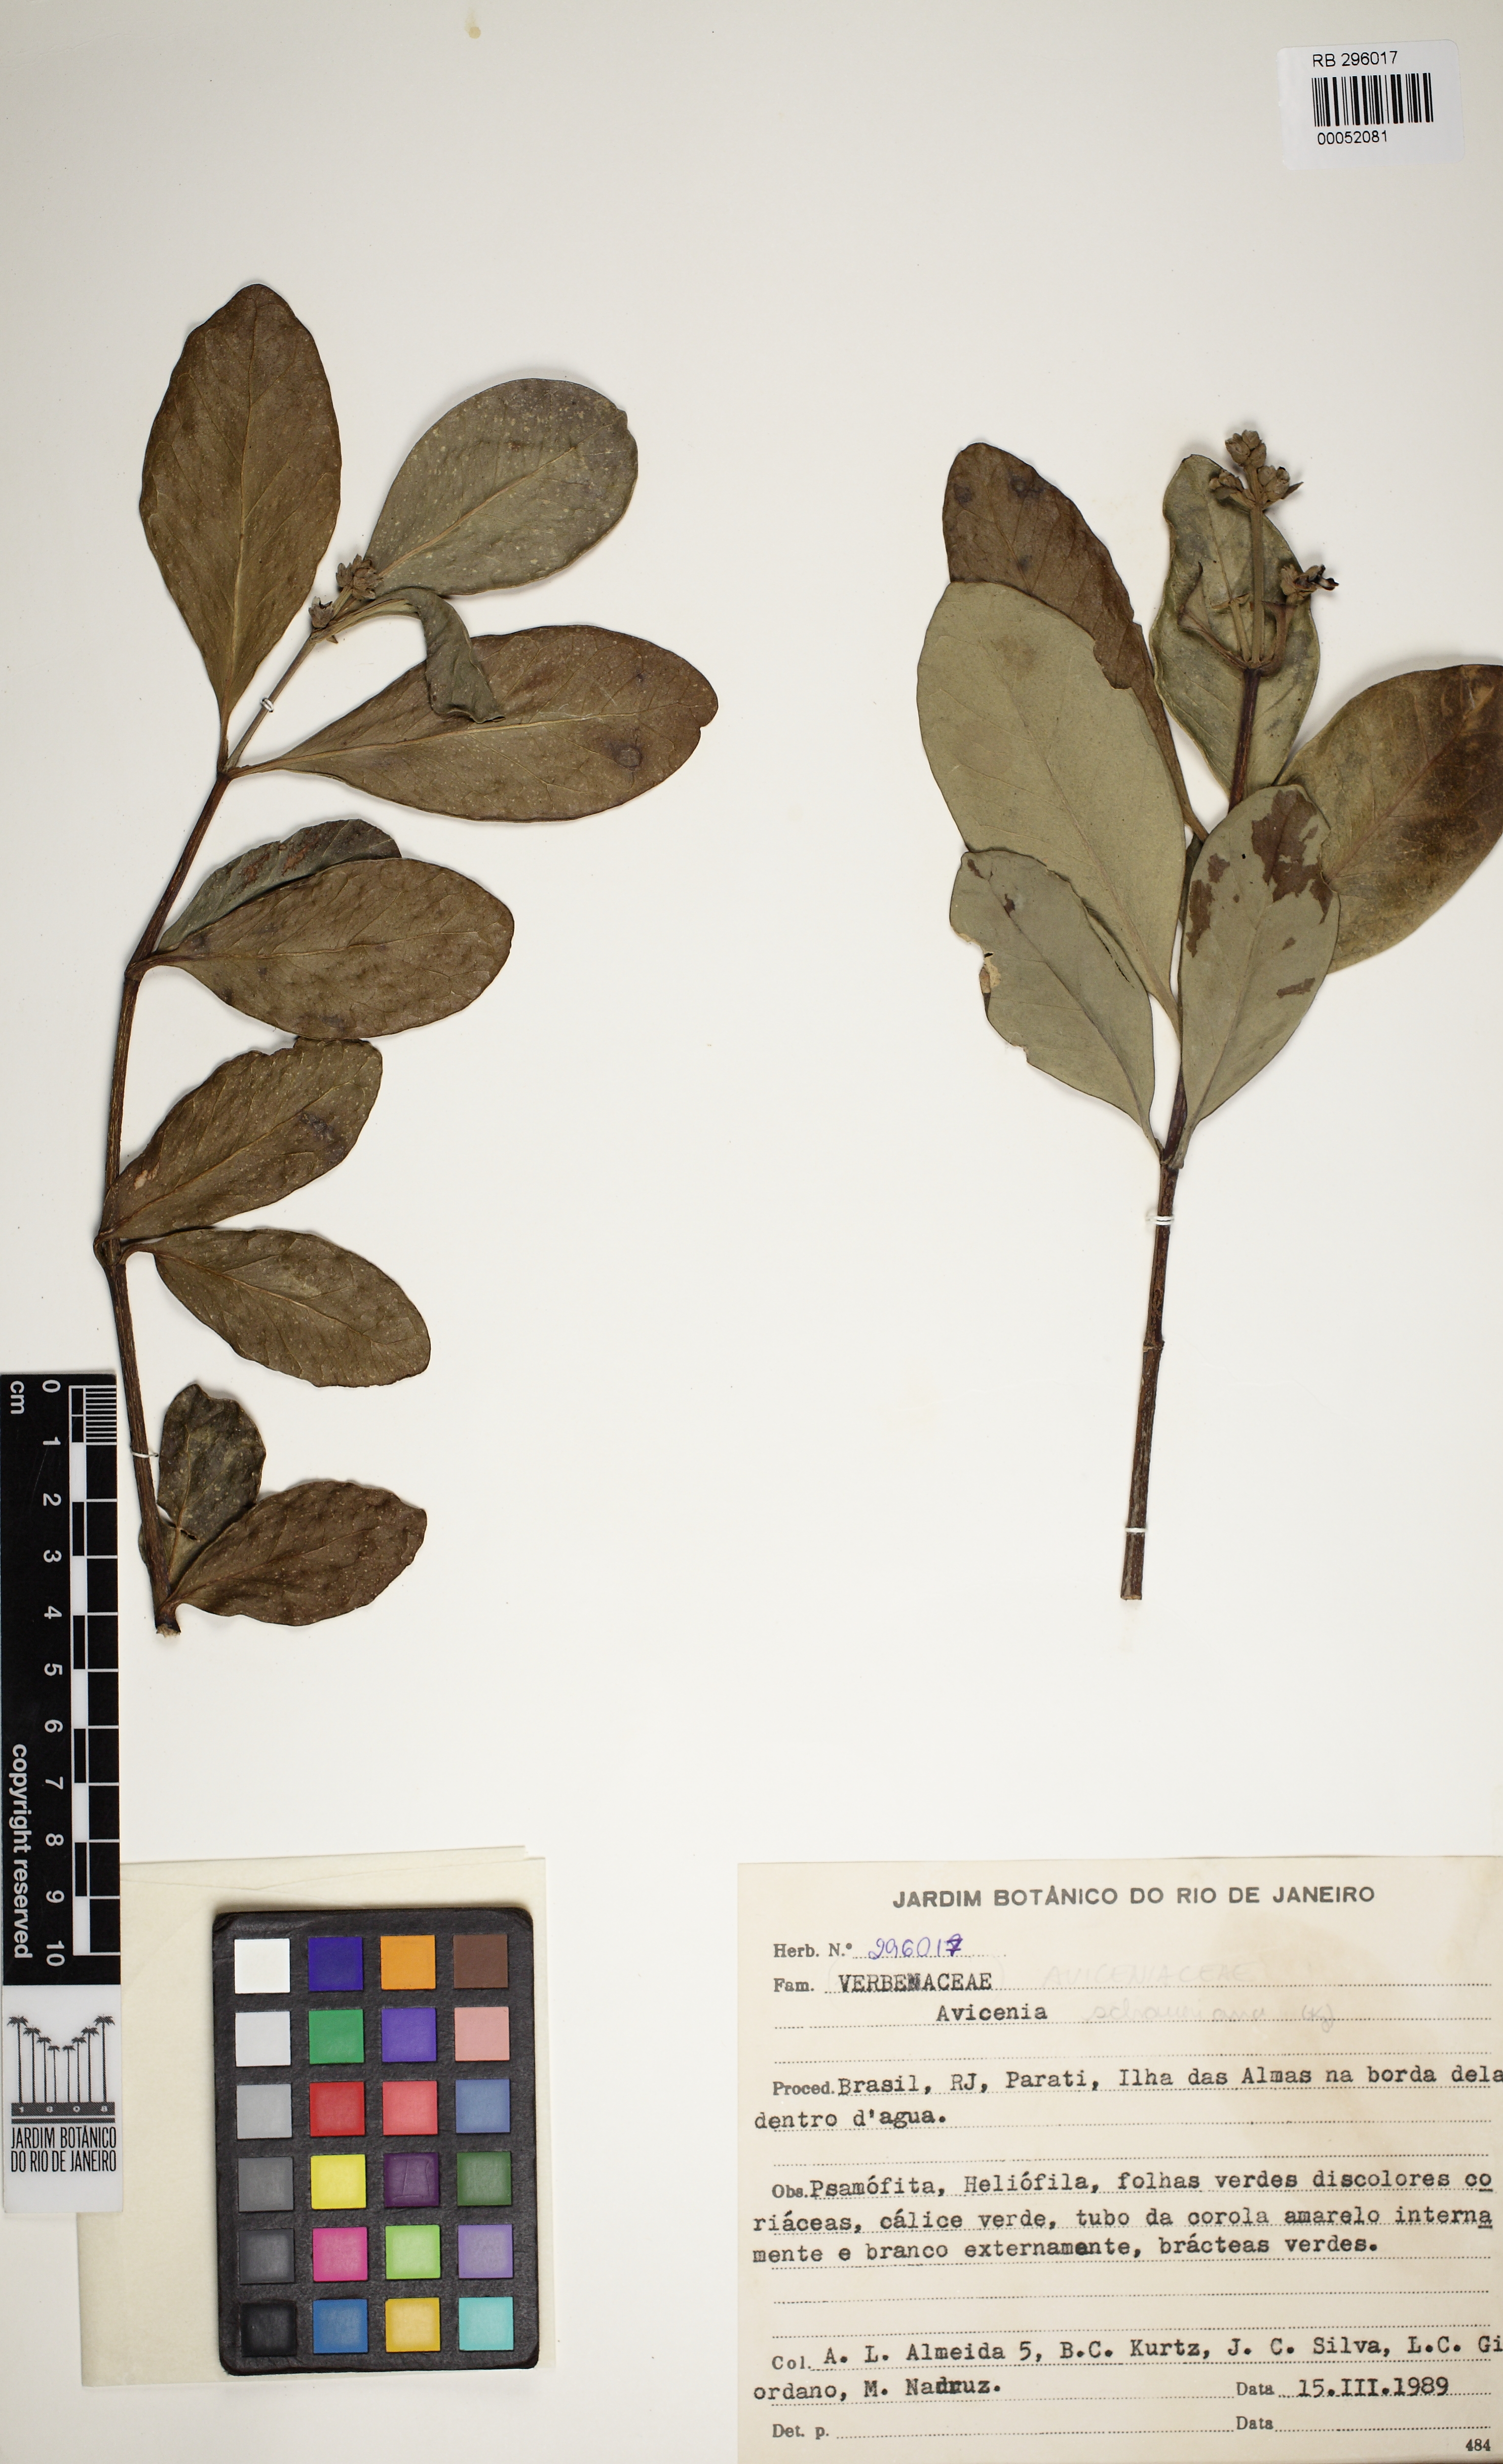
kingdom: Plantae
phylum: Tracheophyta
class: Magnoliopsida
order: Lamiales
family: Acanthaceae
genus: Avicennia
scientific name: Avicennia
